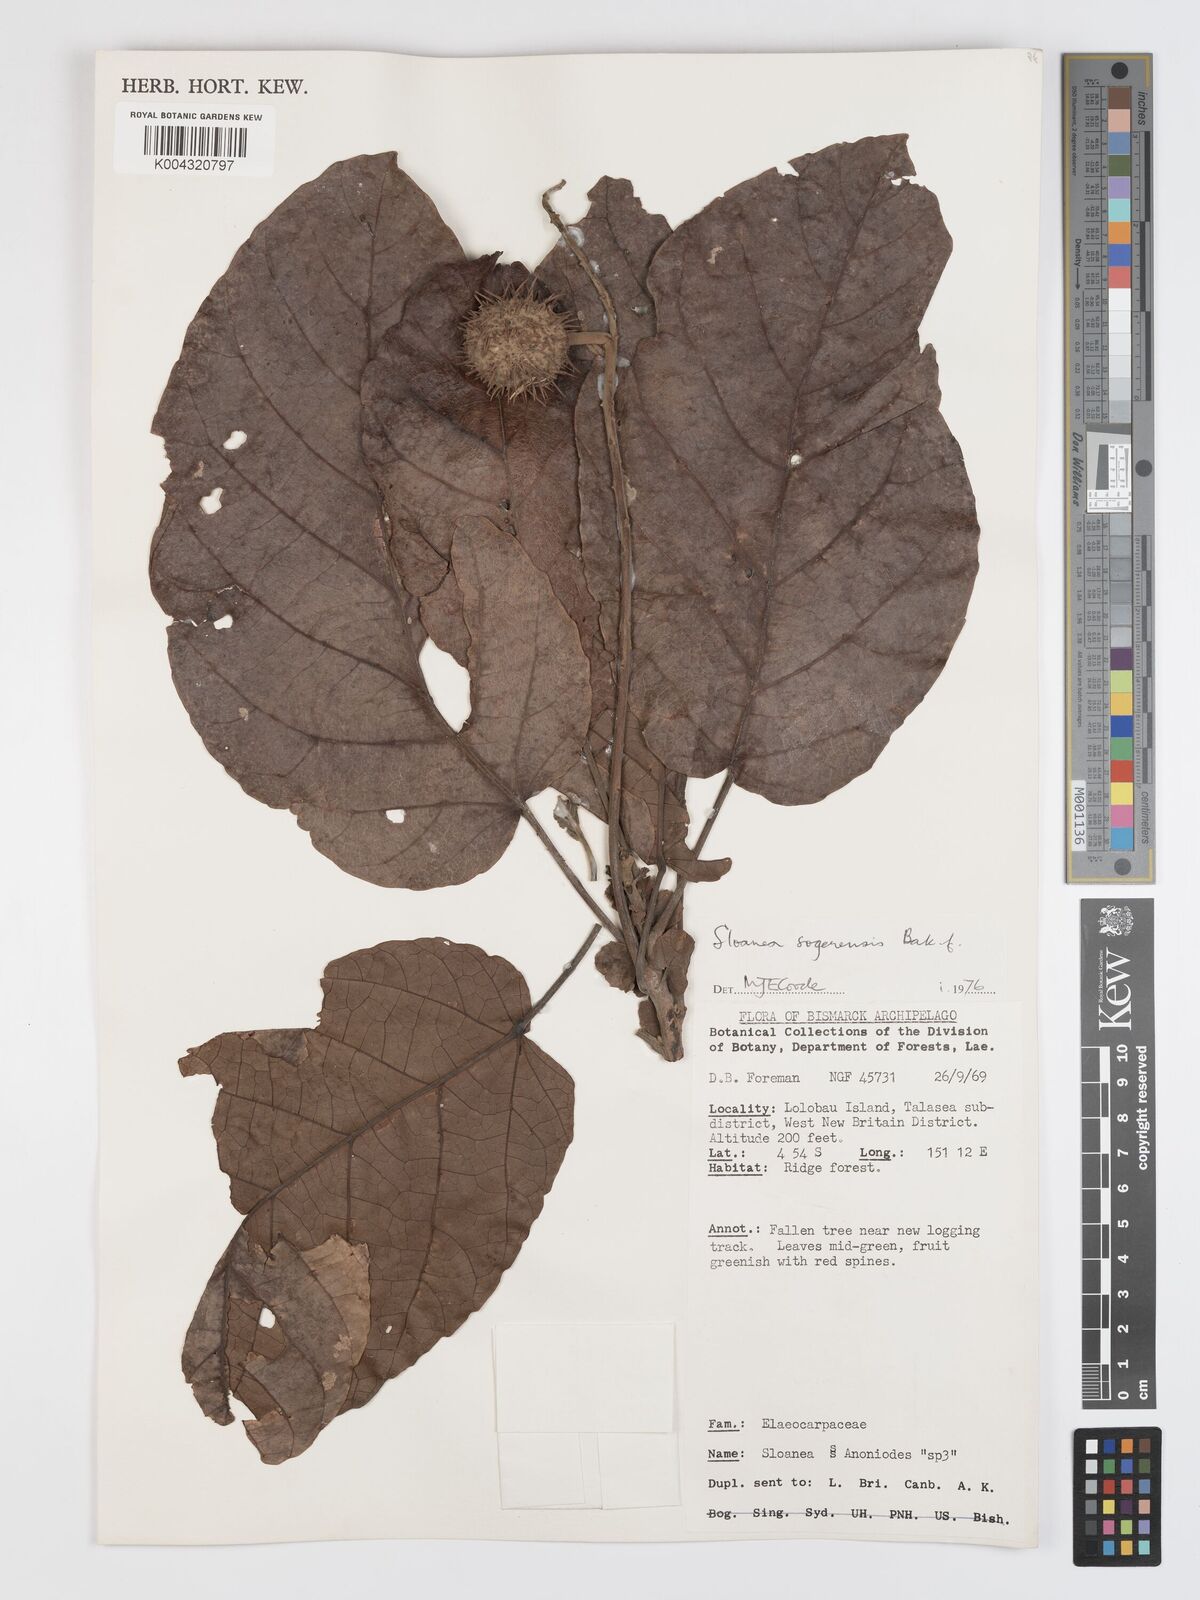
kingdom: Plantae
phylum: Tracheophyta
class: Magnoliopsida
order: Oxalidales
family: Elaeocarpaceae
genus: Sloanea
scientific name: Sloanea sogerensis
